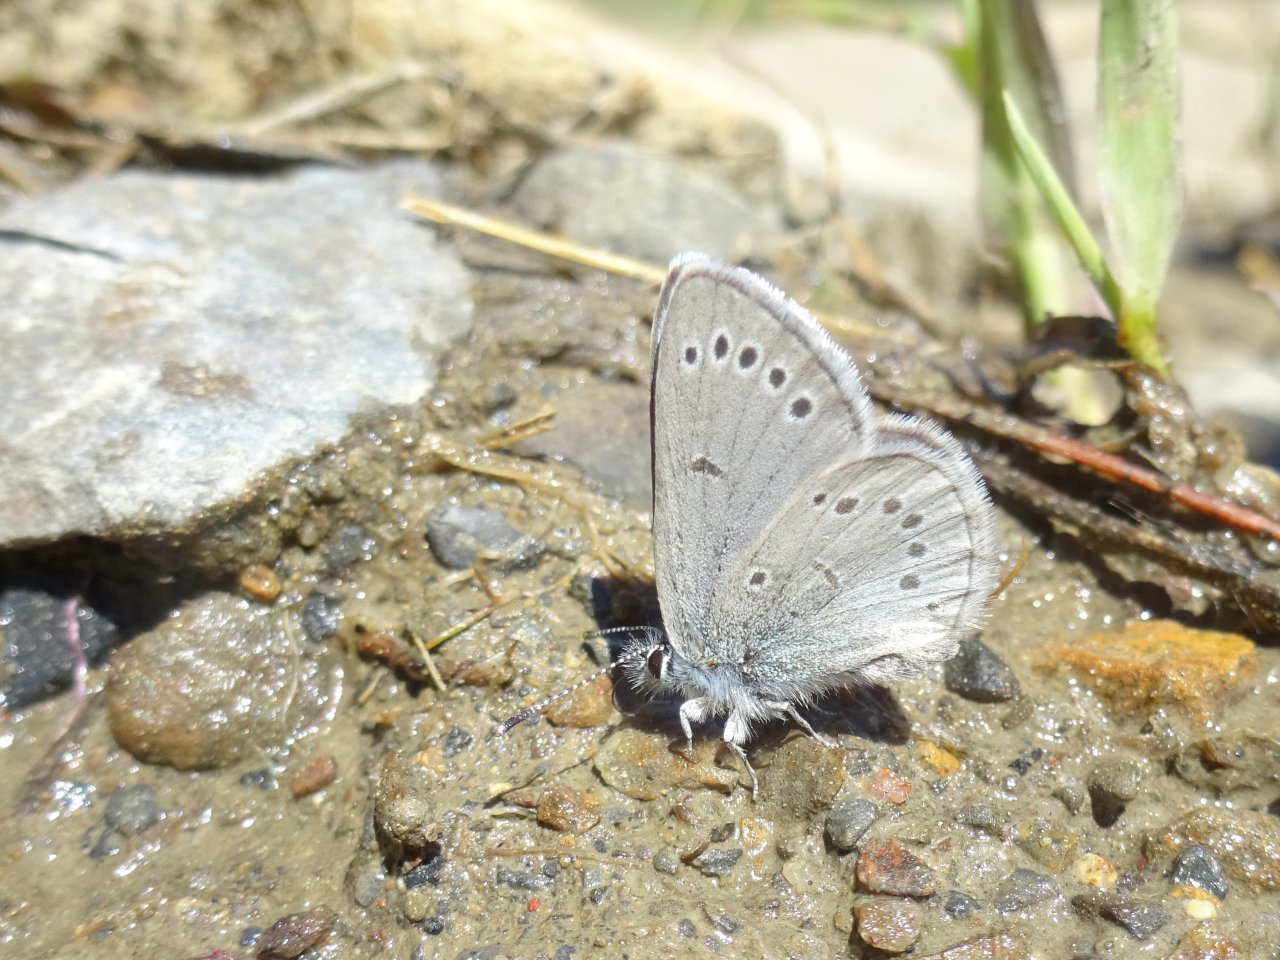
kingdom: Animalia
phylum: Arthropoda
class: Insecta
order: Lepidoptera
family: Lycaenidae
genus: Glaucopsyche
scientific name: Glaucopsyche lygdamus
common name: Silvery Blue
